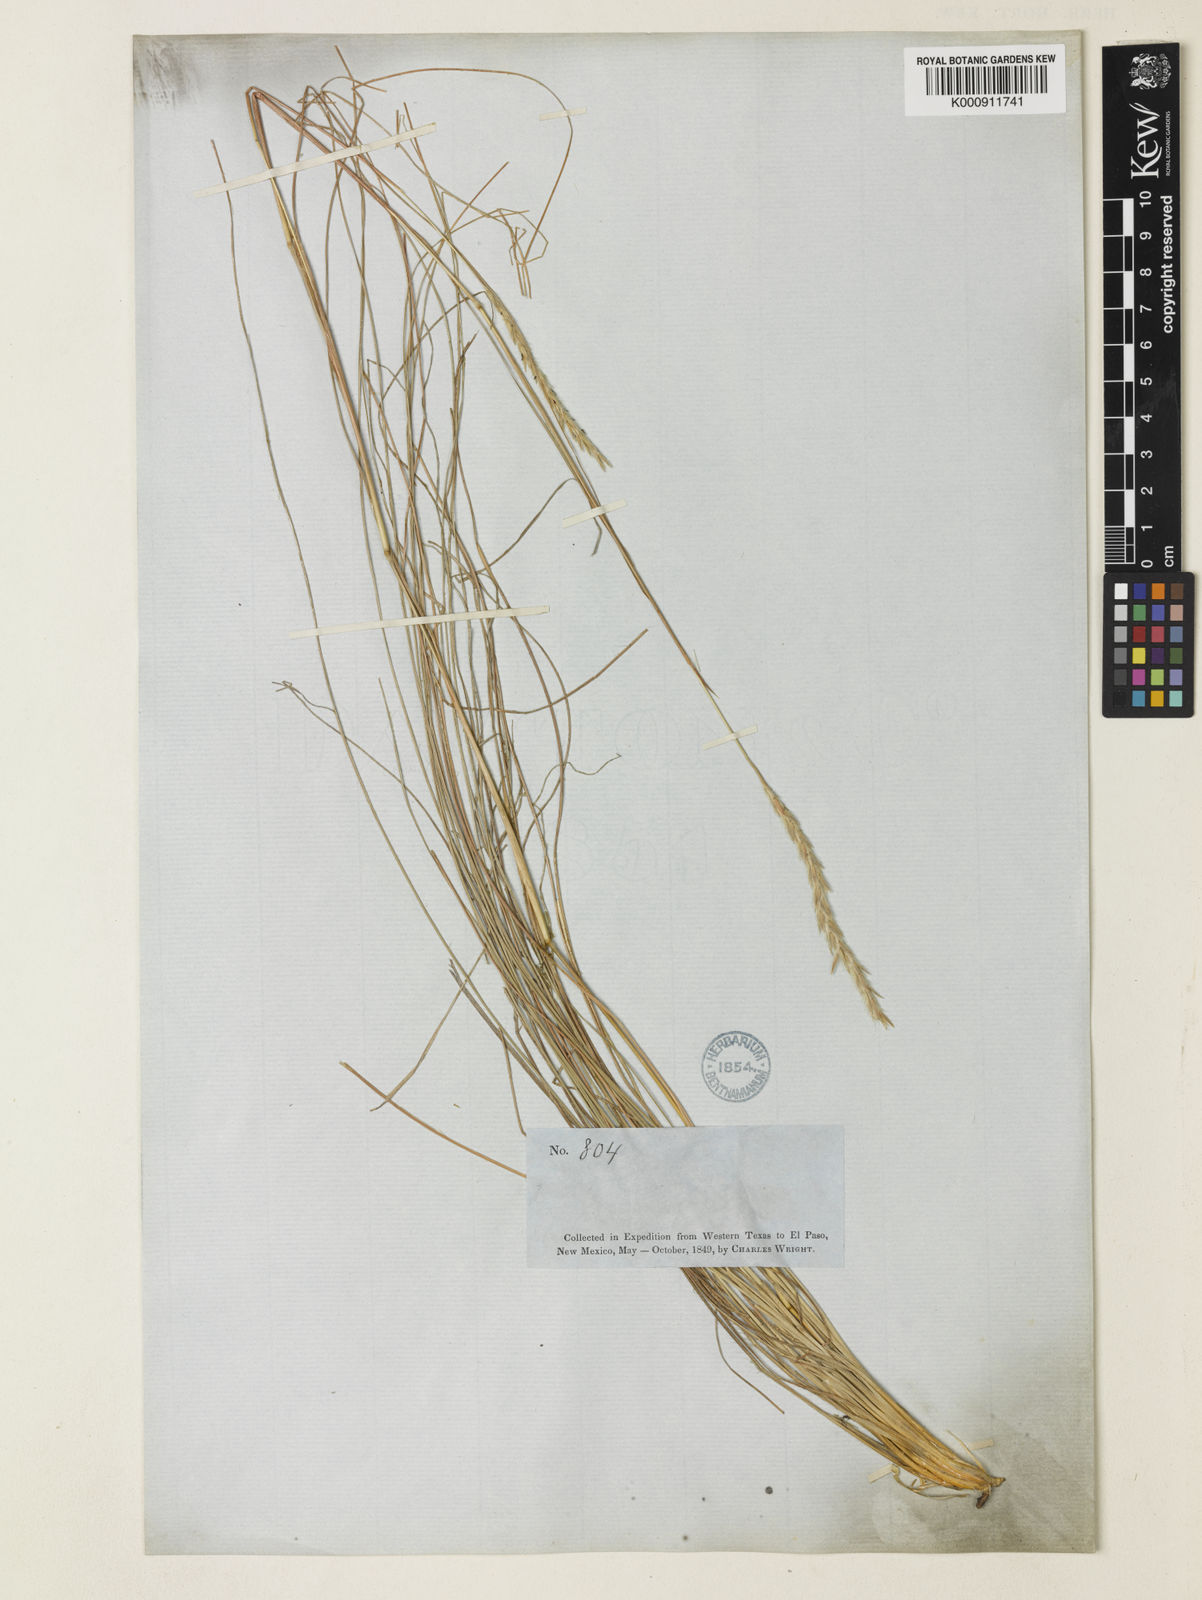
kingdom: Plantae
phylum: Tracheophyta
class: Liliopsida
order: Poales
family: Poaceae
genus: Elionurus
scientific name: Elionurus
